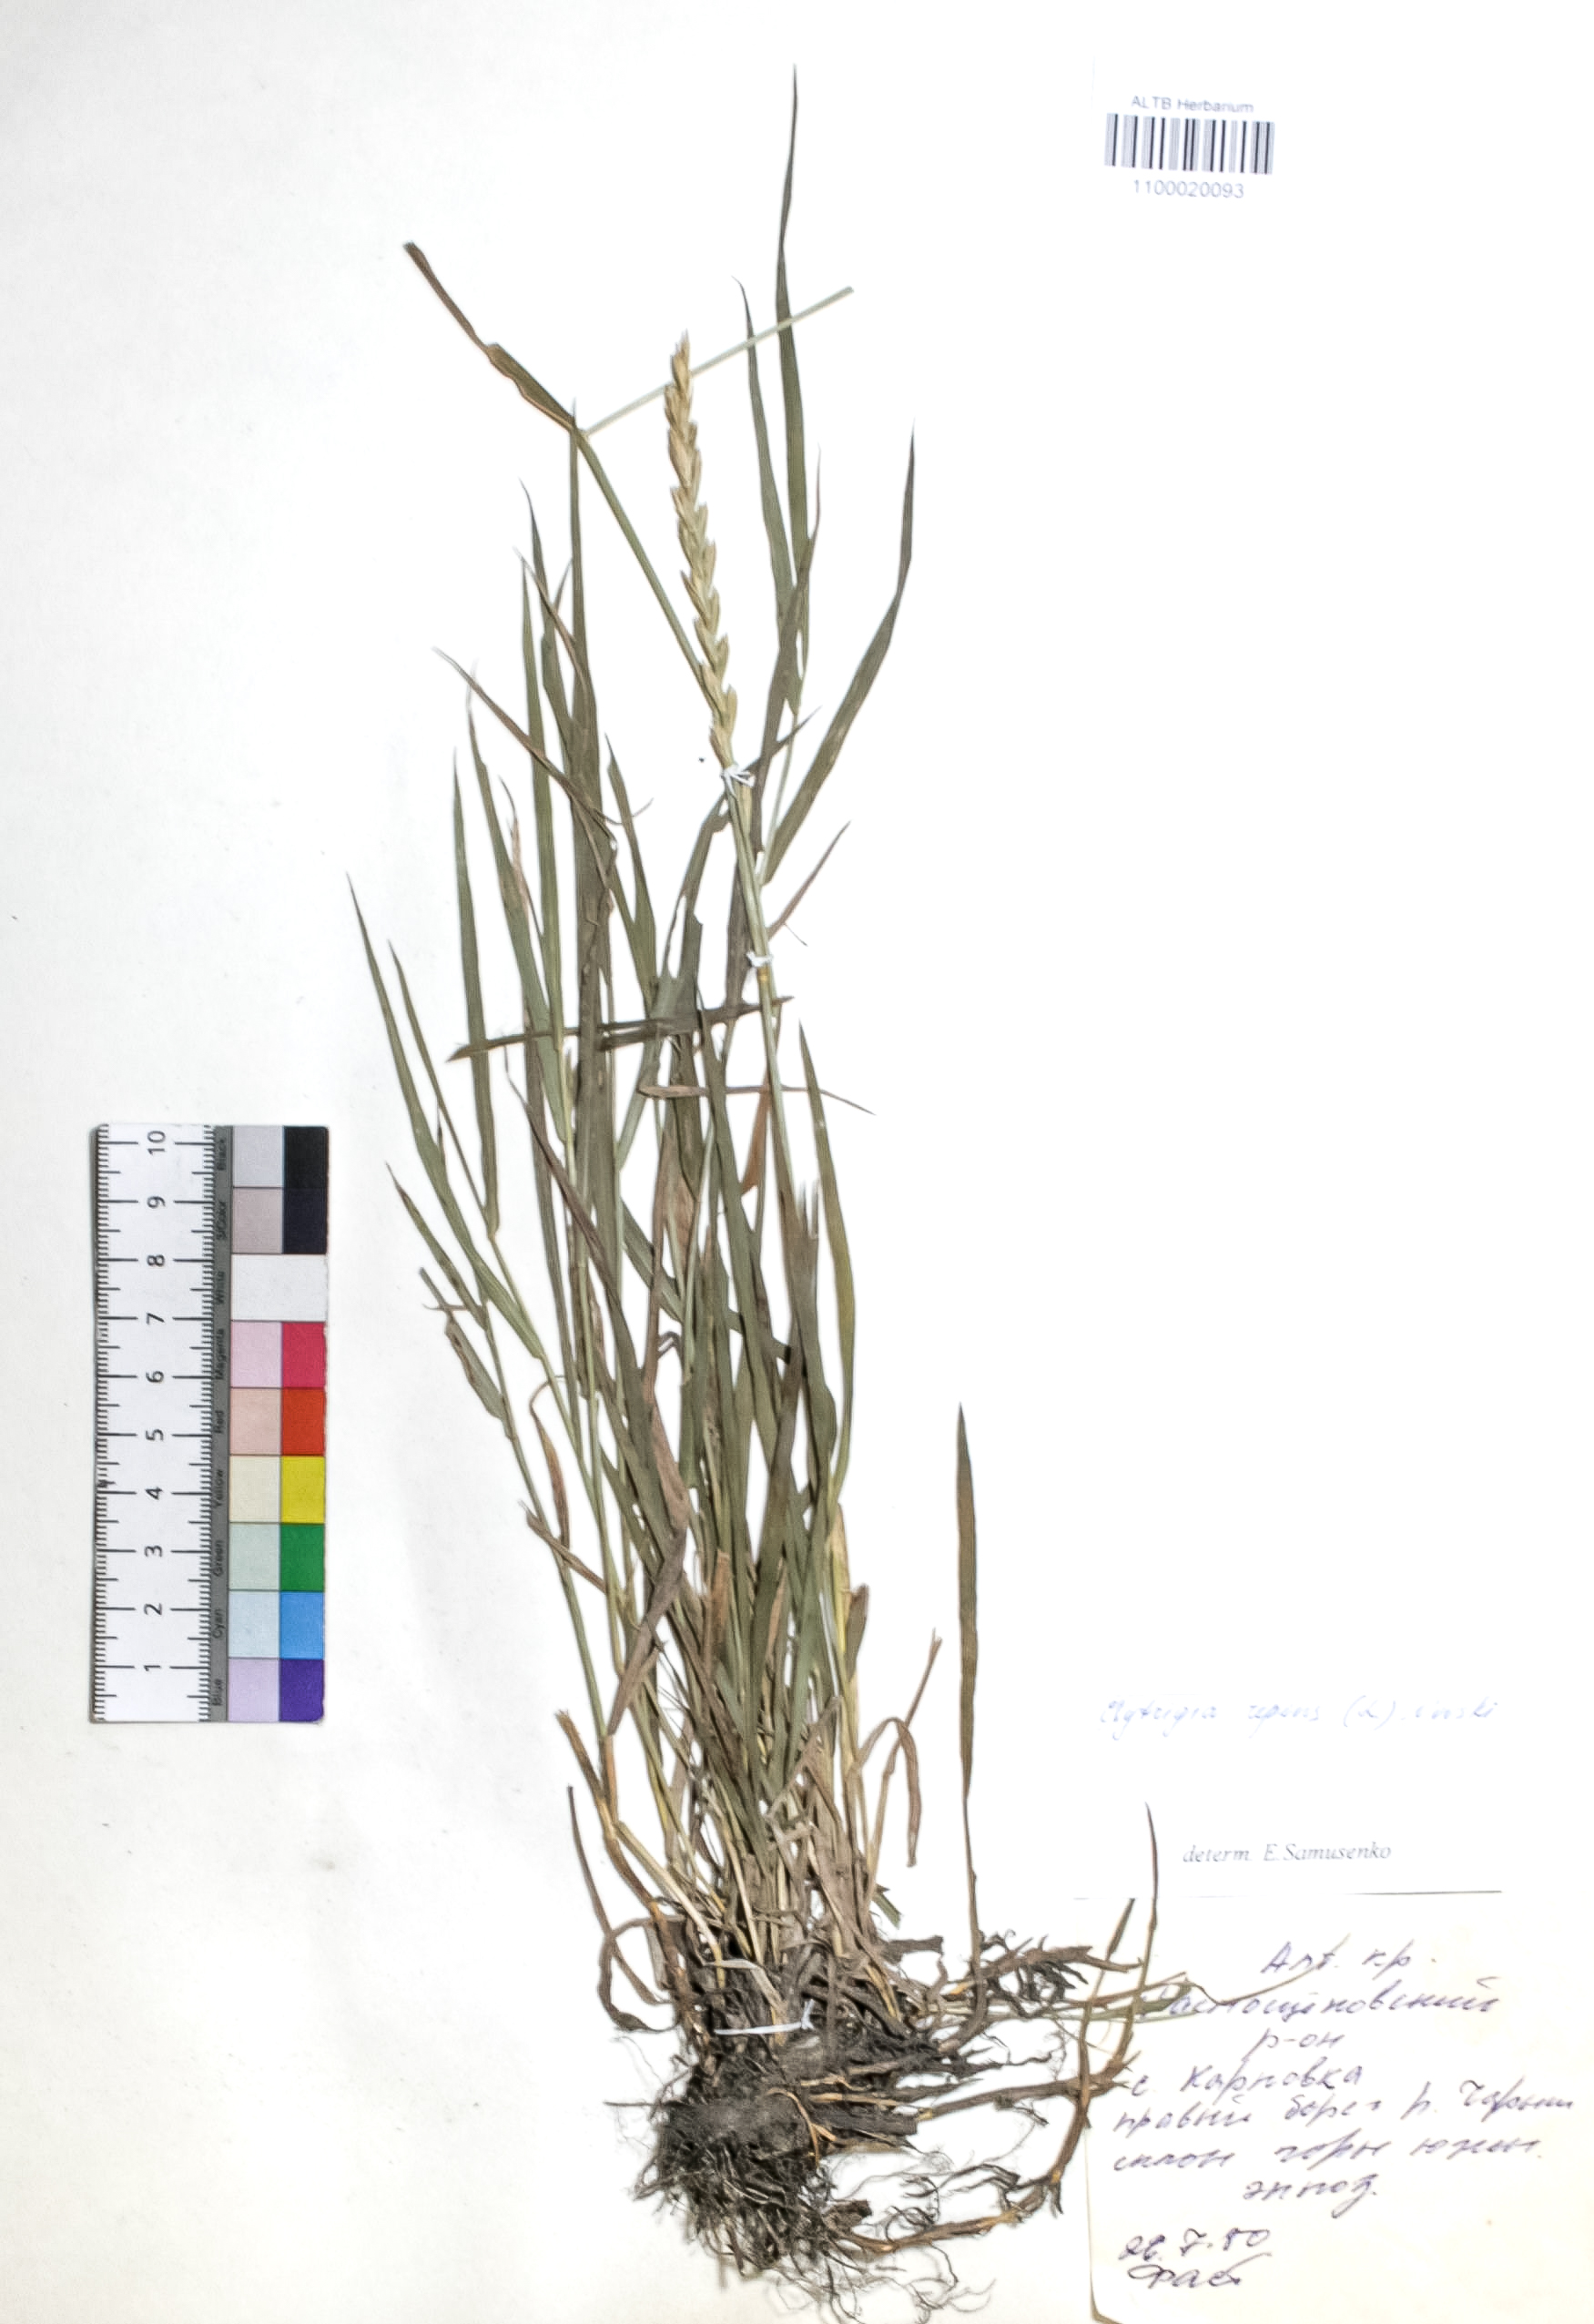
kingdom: Plantae
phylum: Tracheophyta
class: Liliopsida
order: Poales
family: Poaceae
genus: Elymus
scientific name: Elymus repens
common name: Quackgrass
